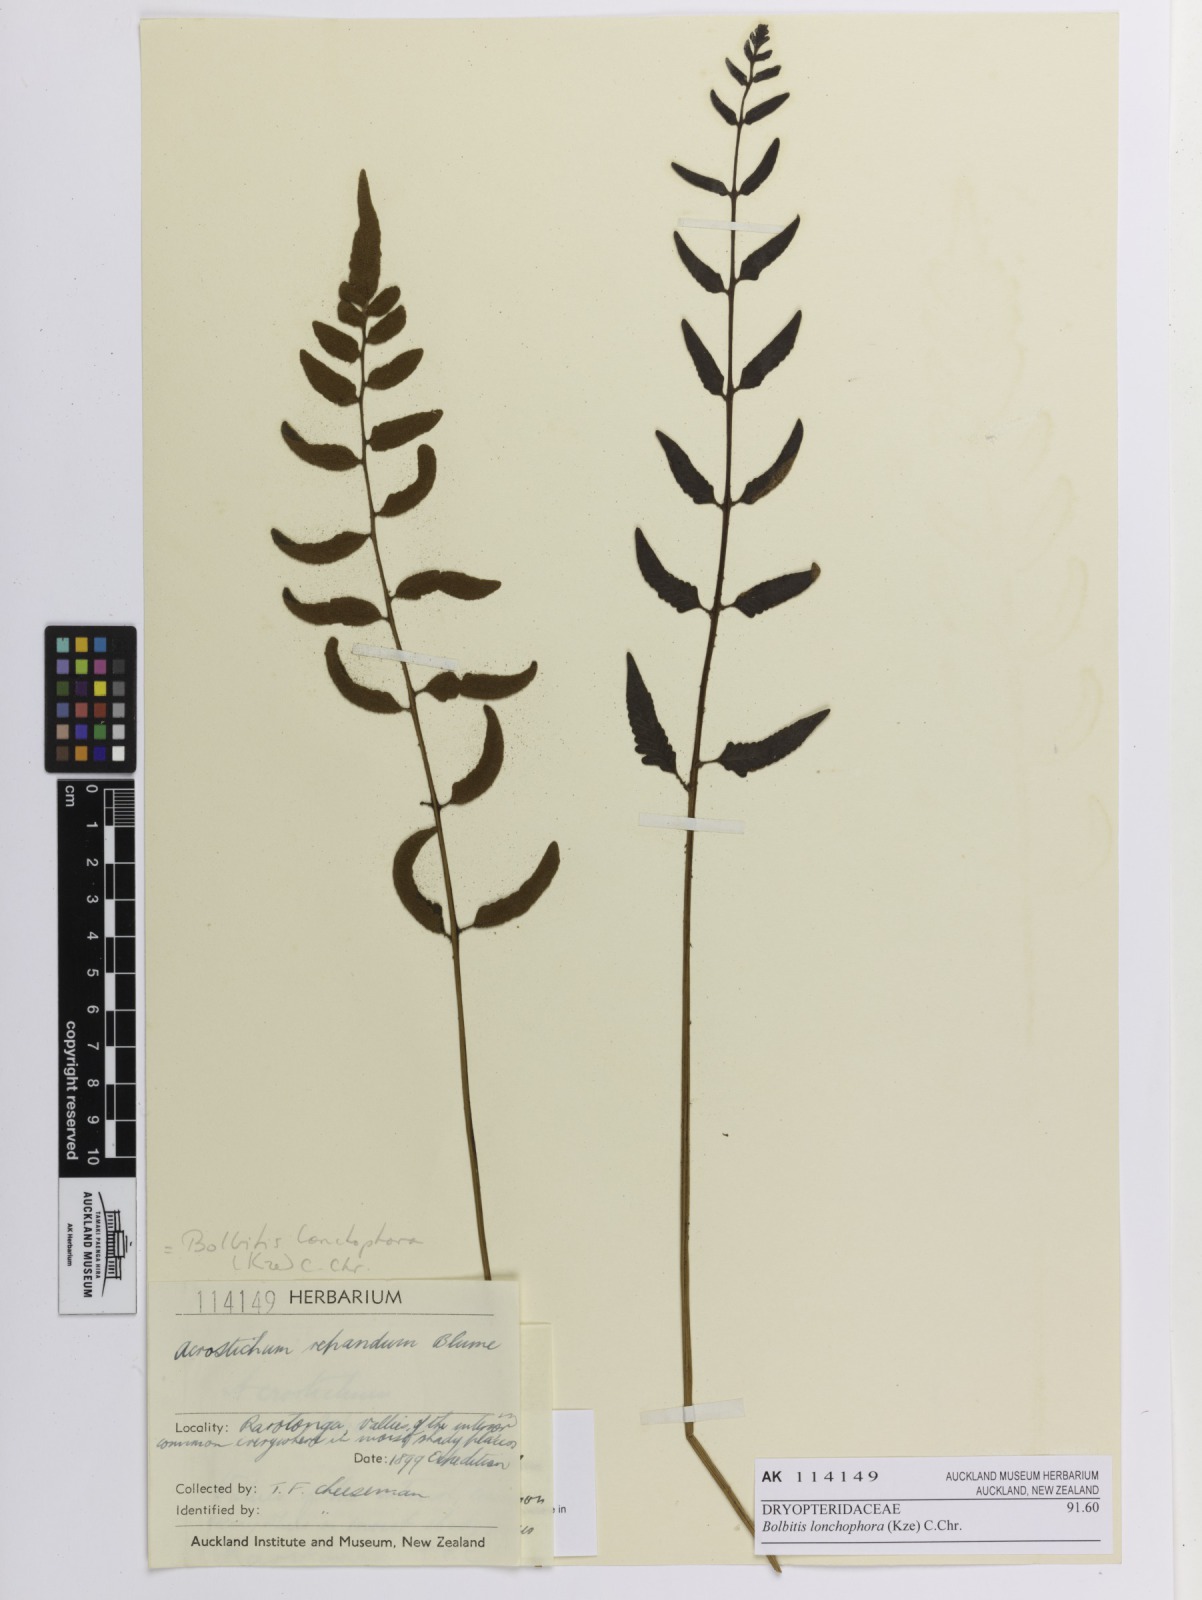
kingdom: Plantae
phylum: Tracheophyta
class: Polypodiopsida
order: Polypodiales
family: Dryopteridaceae
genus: Bolbitis
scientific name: Bolbitis lonchophora
